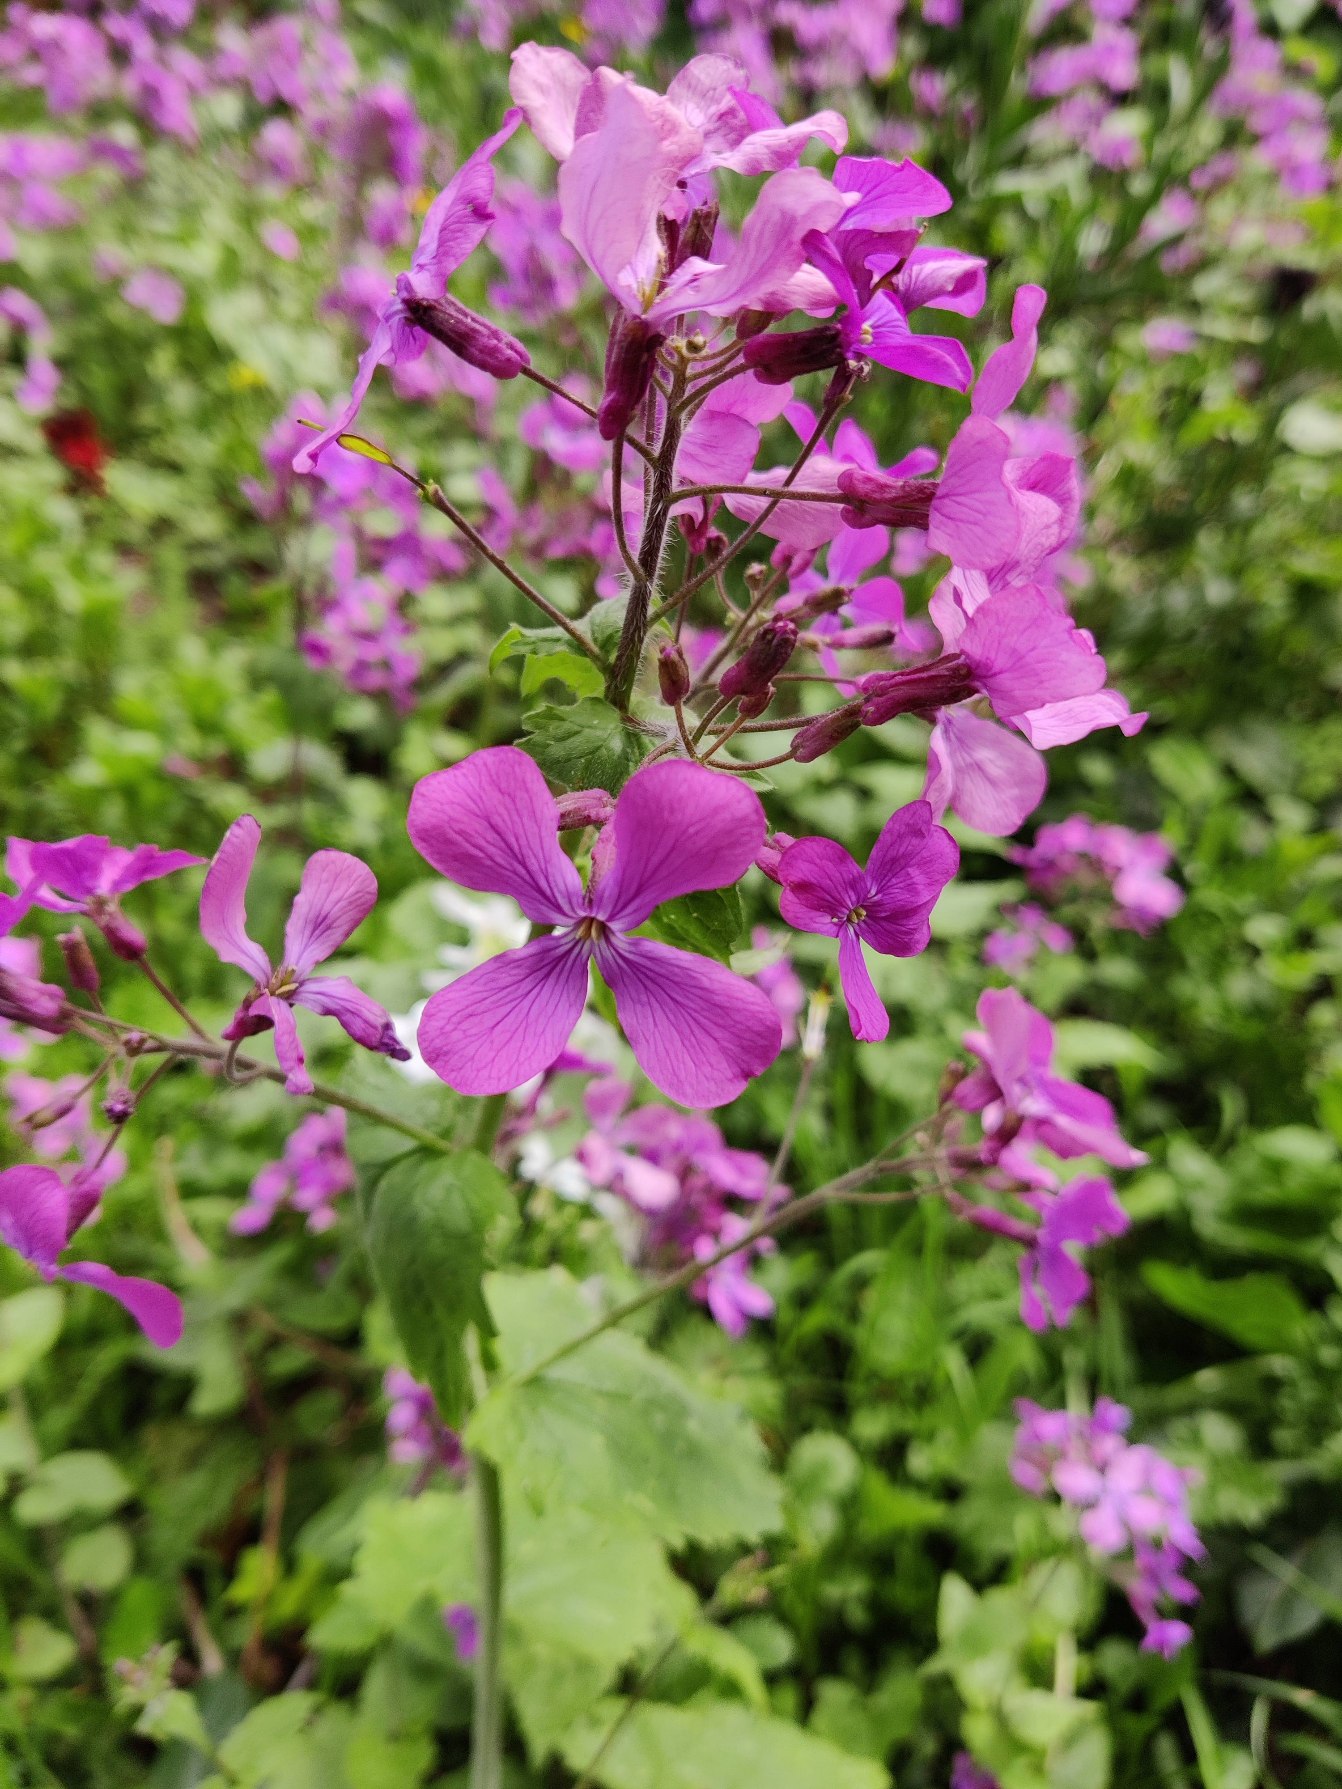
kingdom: Plantae
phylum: Tracheophyta
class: Magnoliopsida
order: Brassicales
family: Brassicaceae
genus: Lunaria
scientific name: Lunaria annua
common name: Judaspenge
